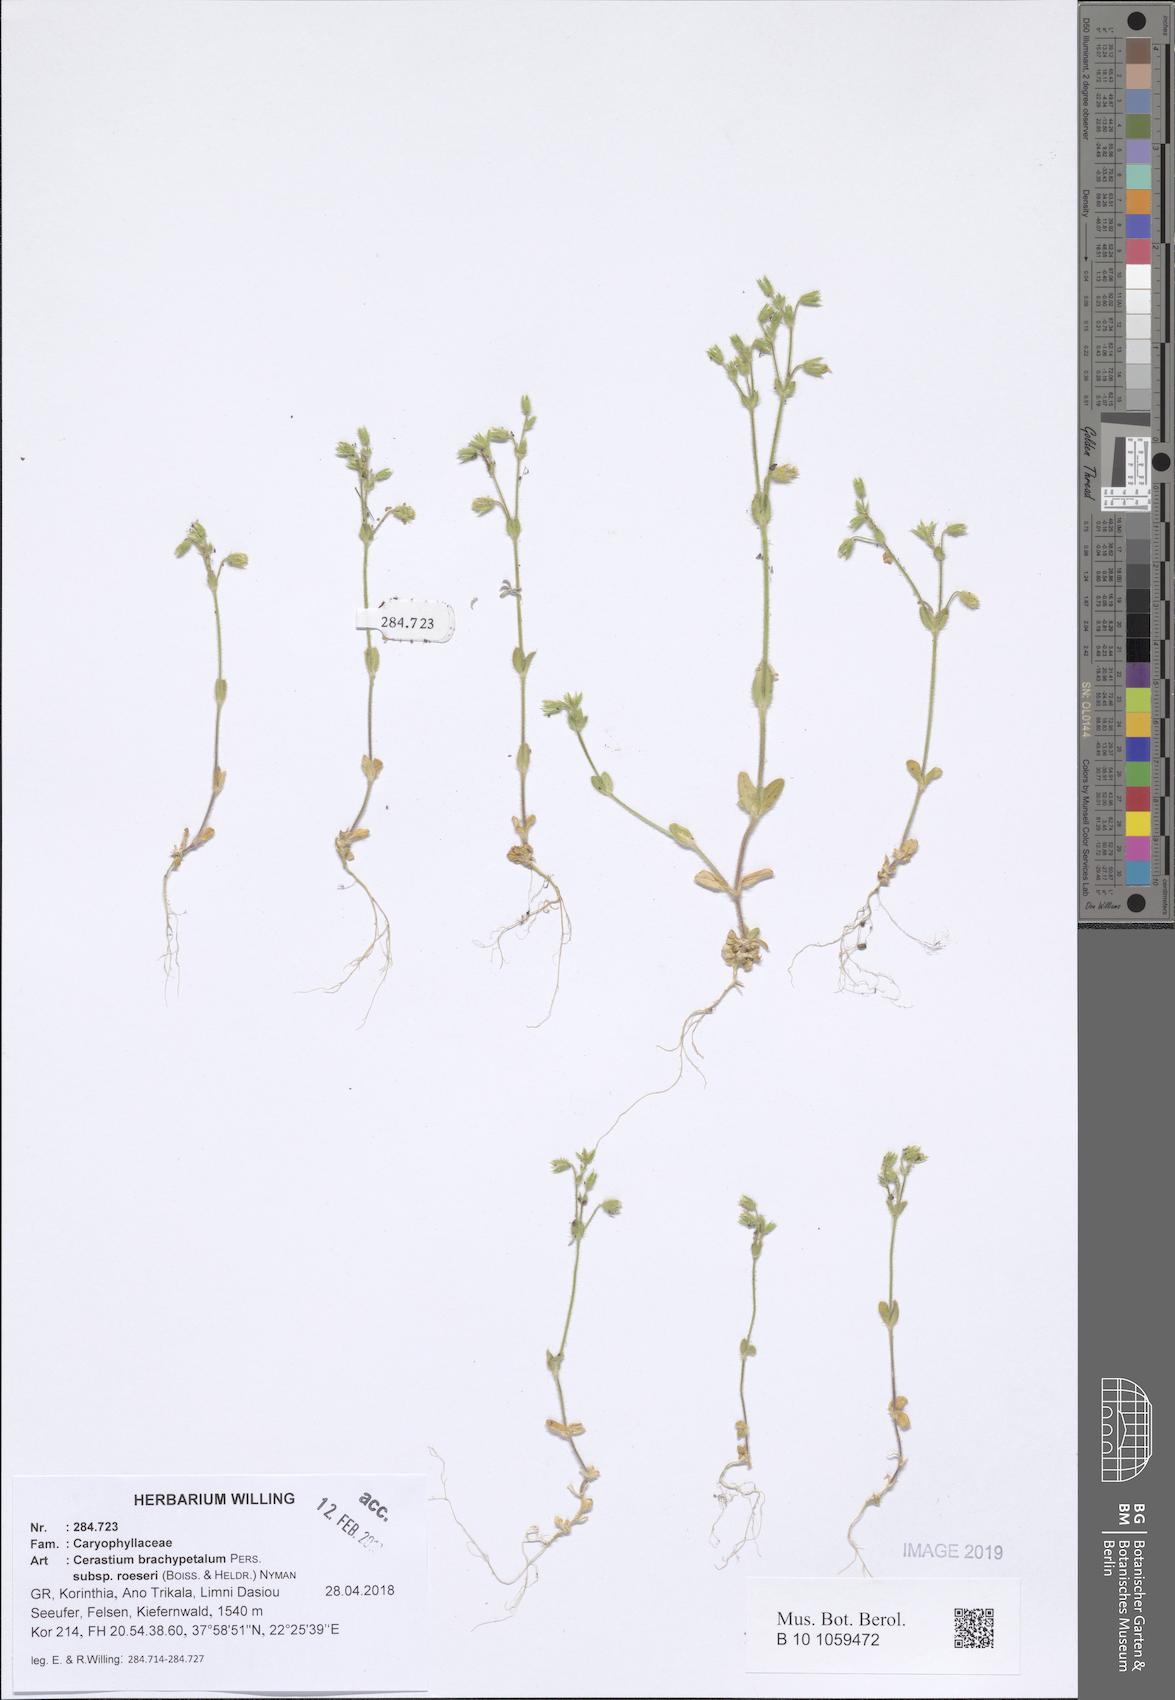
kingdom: Plantae
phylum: Tracheophyta
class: Magnoliopsida
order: Caryophyllales
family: Caryophyllaceae
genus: Cerastium
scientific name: Cerastium brachypetalum
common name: Grey mouse-ear
